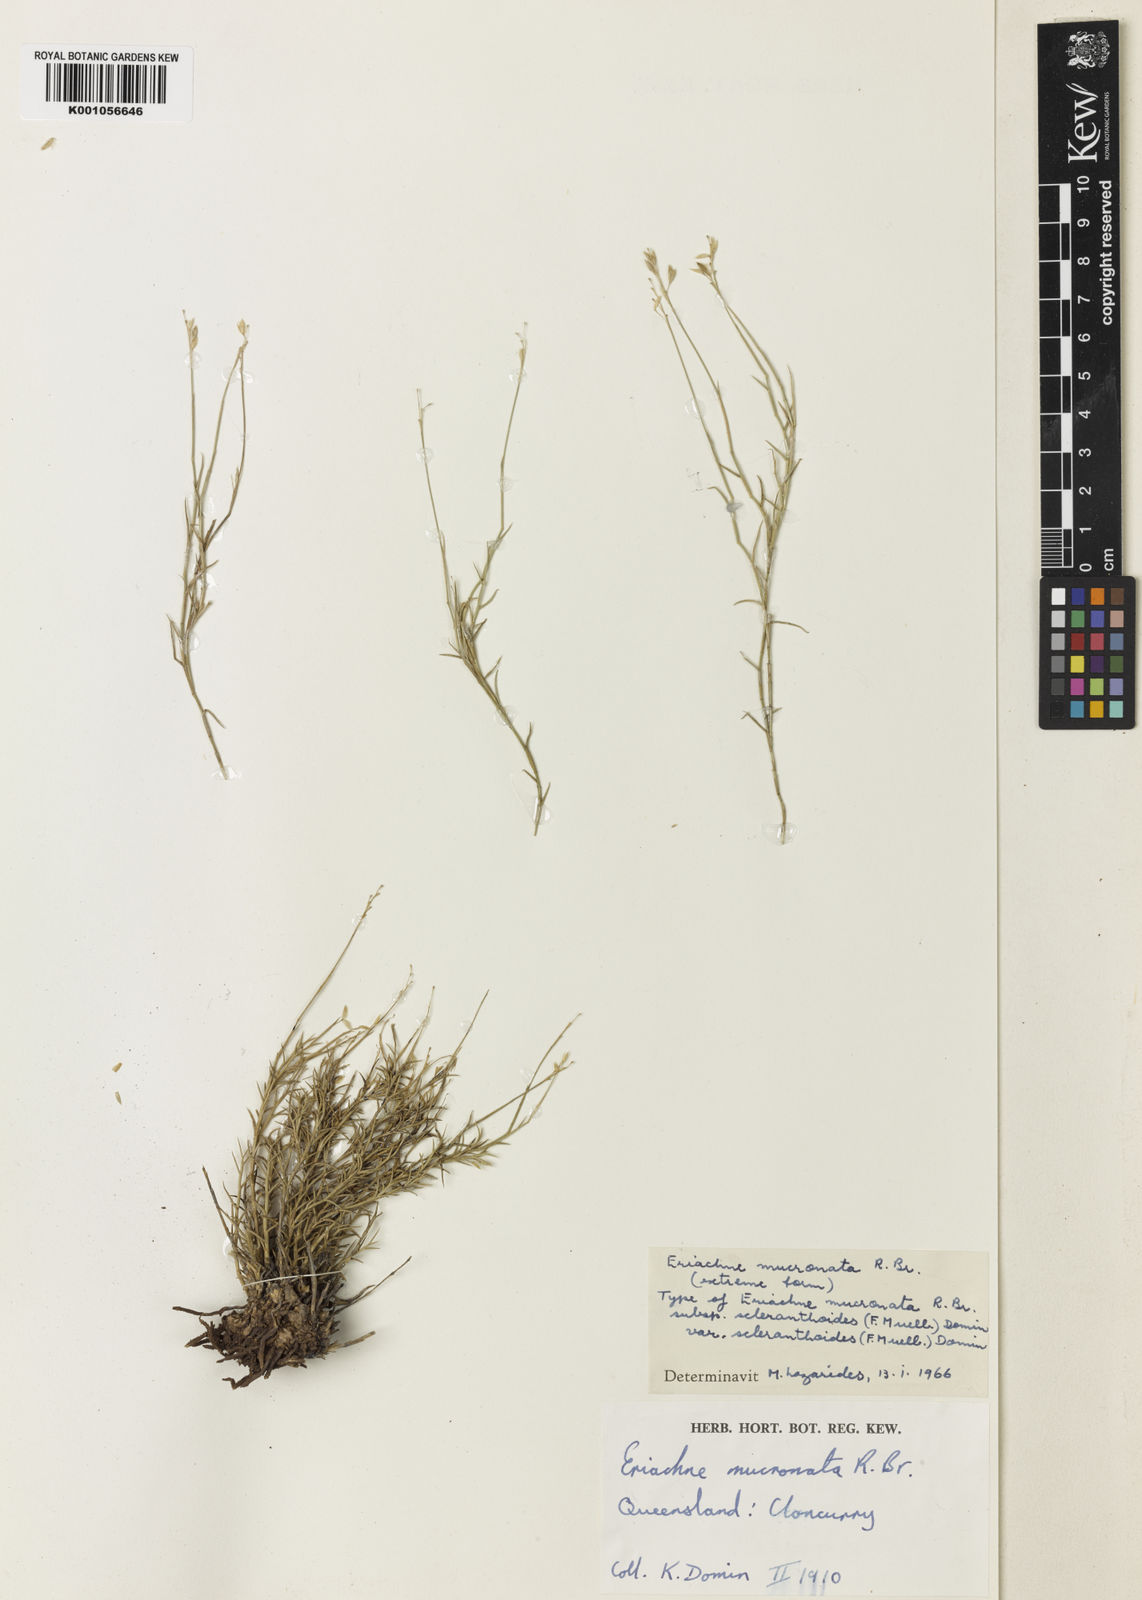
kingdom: Plantae
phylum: Tracheophyta
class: Liliopsida
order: Poales
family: Poaceae
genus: Eriachne
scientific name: Eriachne scleranthoides
